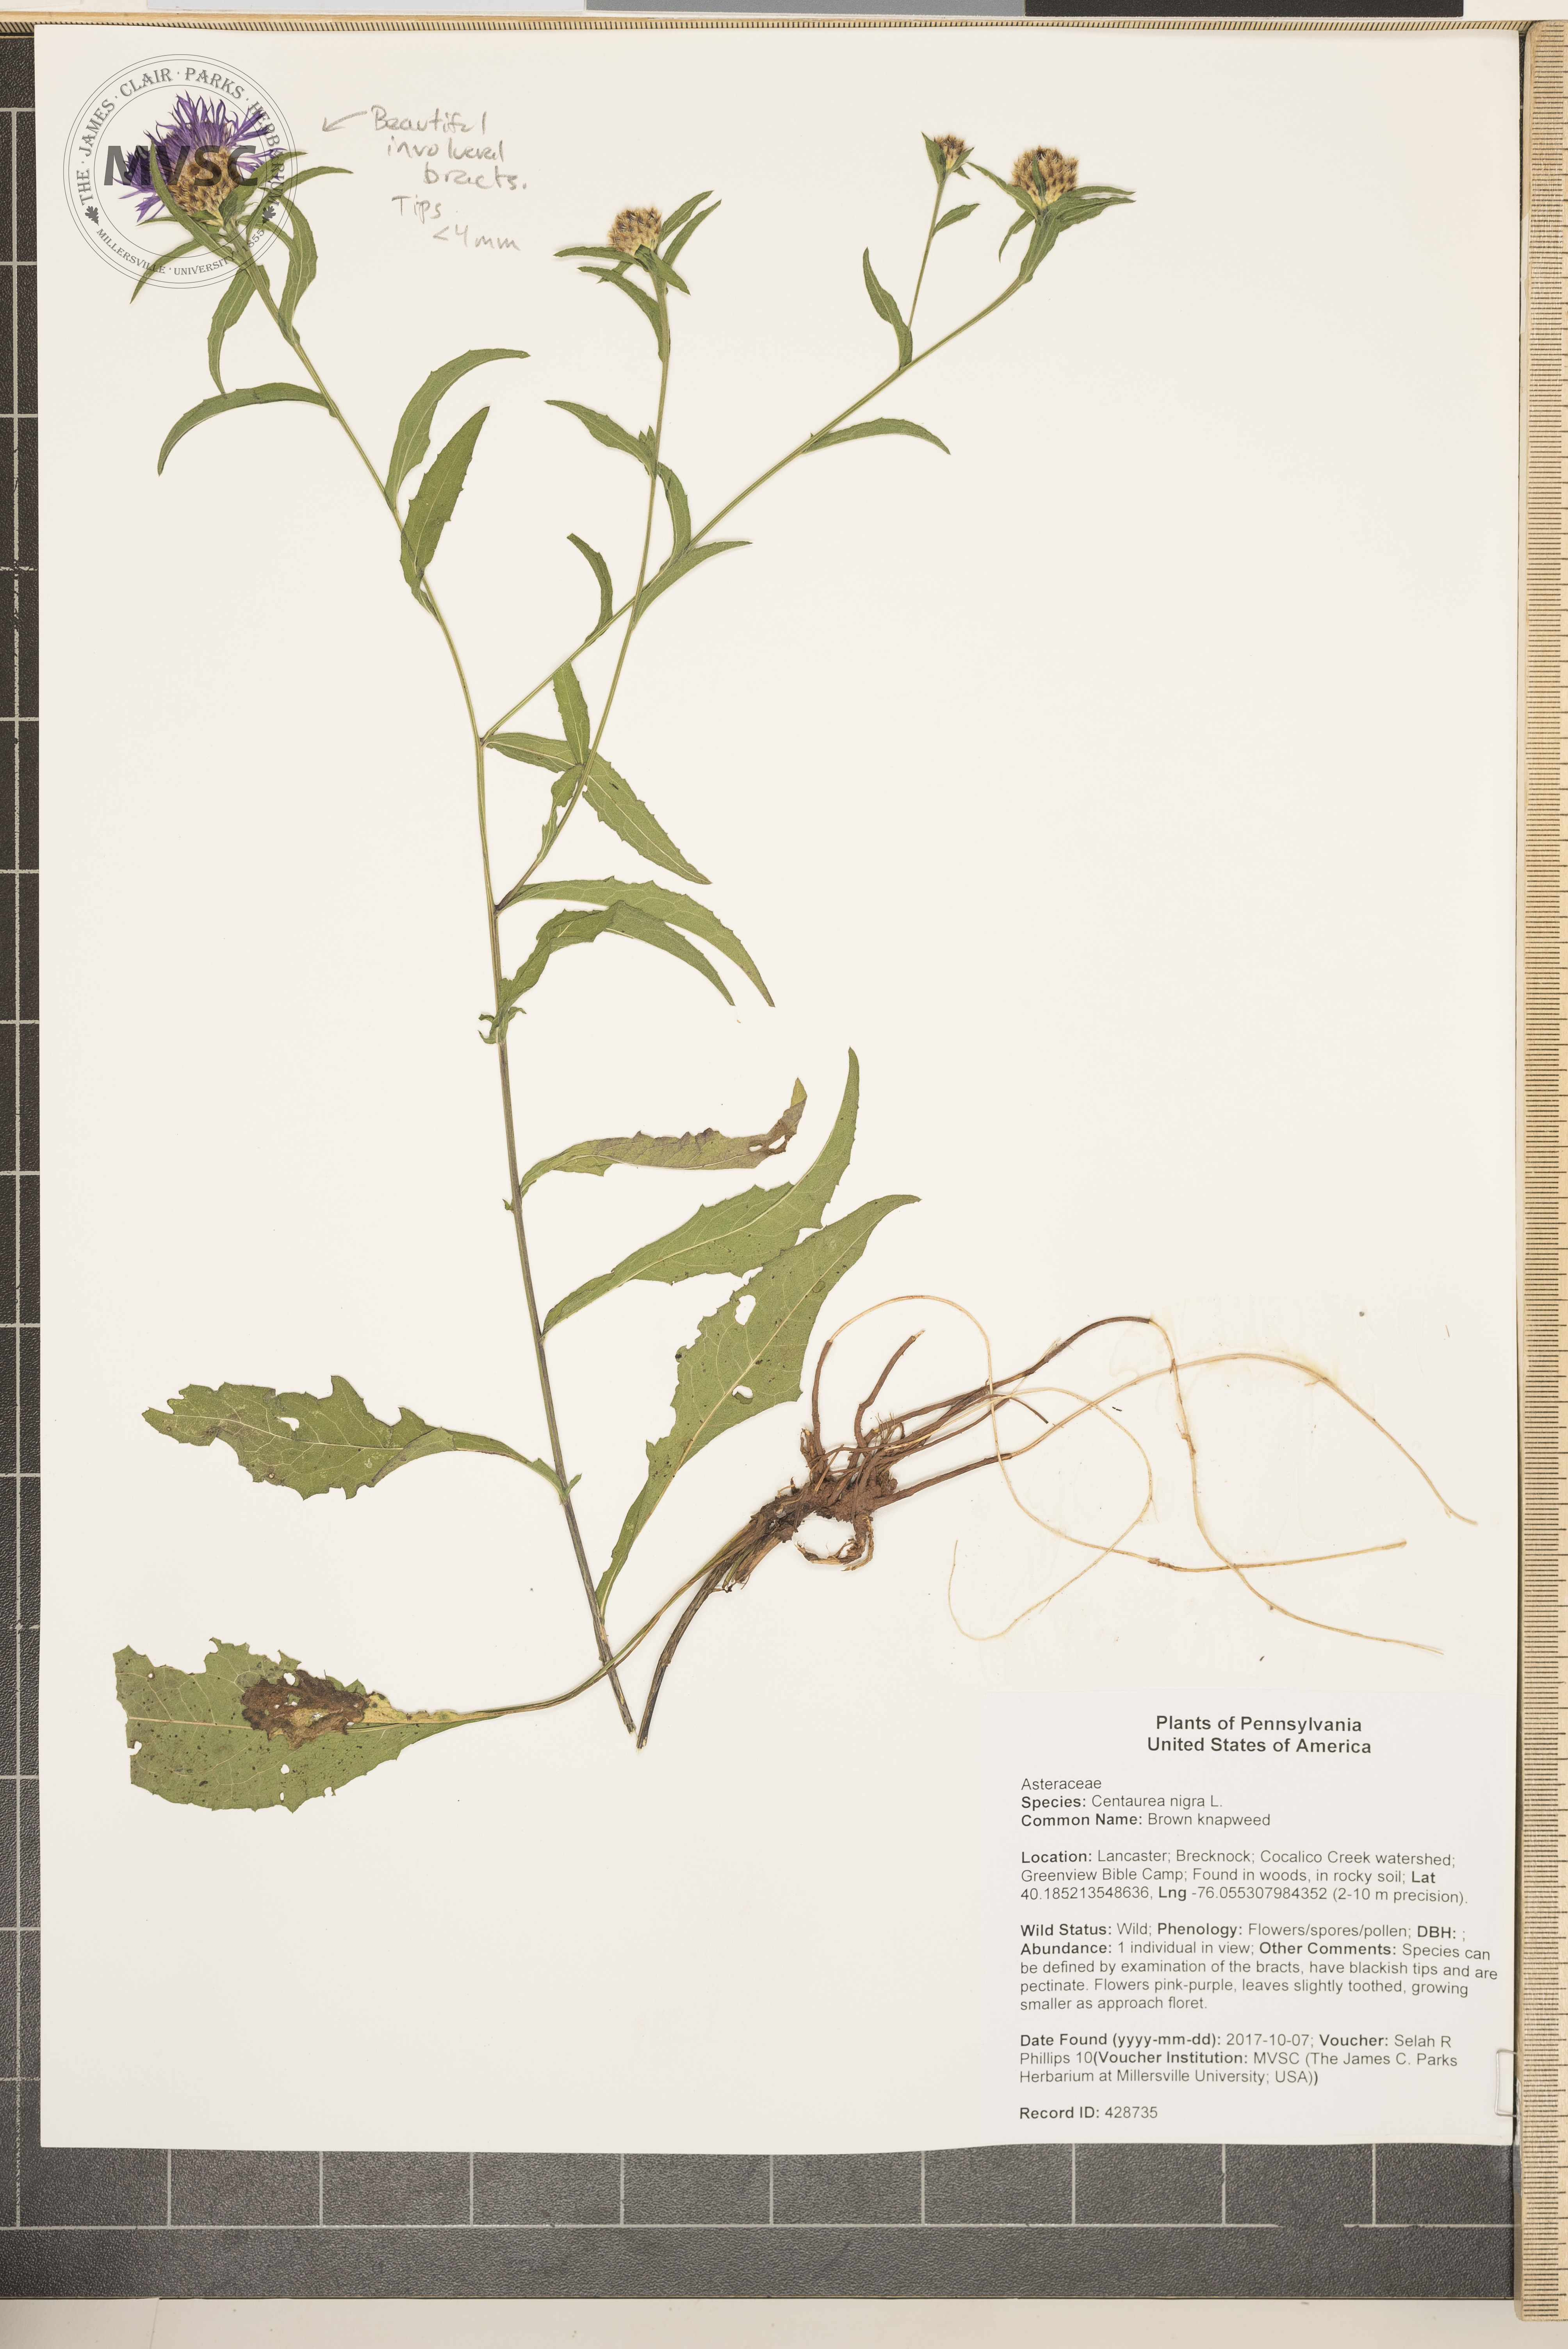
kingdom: Plantae
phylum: Tracheophyta
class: Magnoliopsida
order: Asterales
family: Asteraceae
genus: Centaurea
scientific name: Centaurea nigra
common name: Brown knapweed
